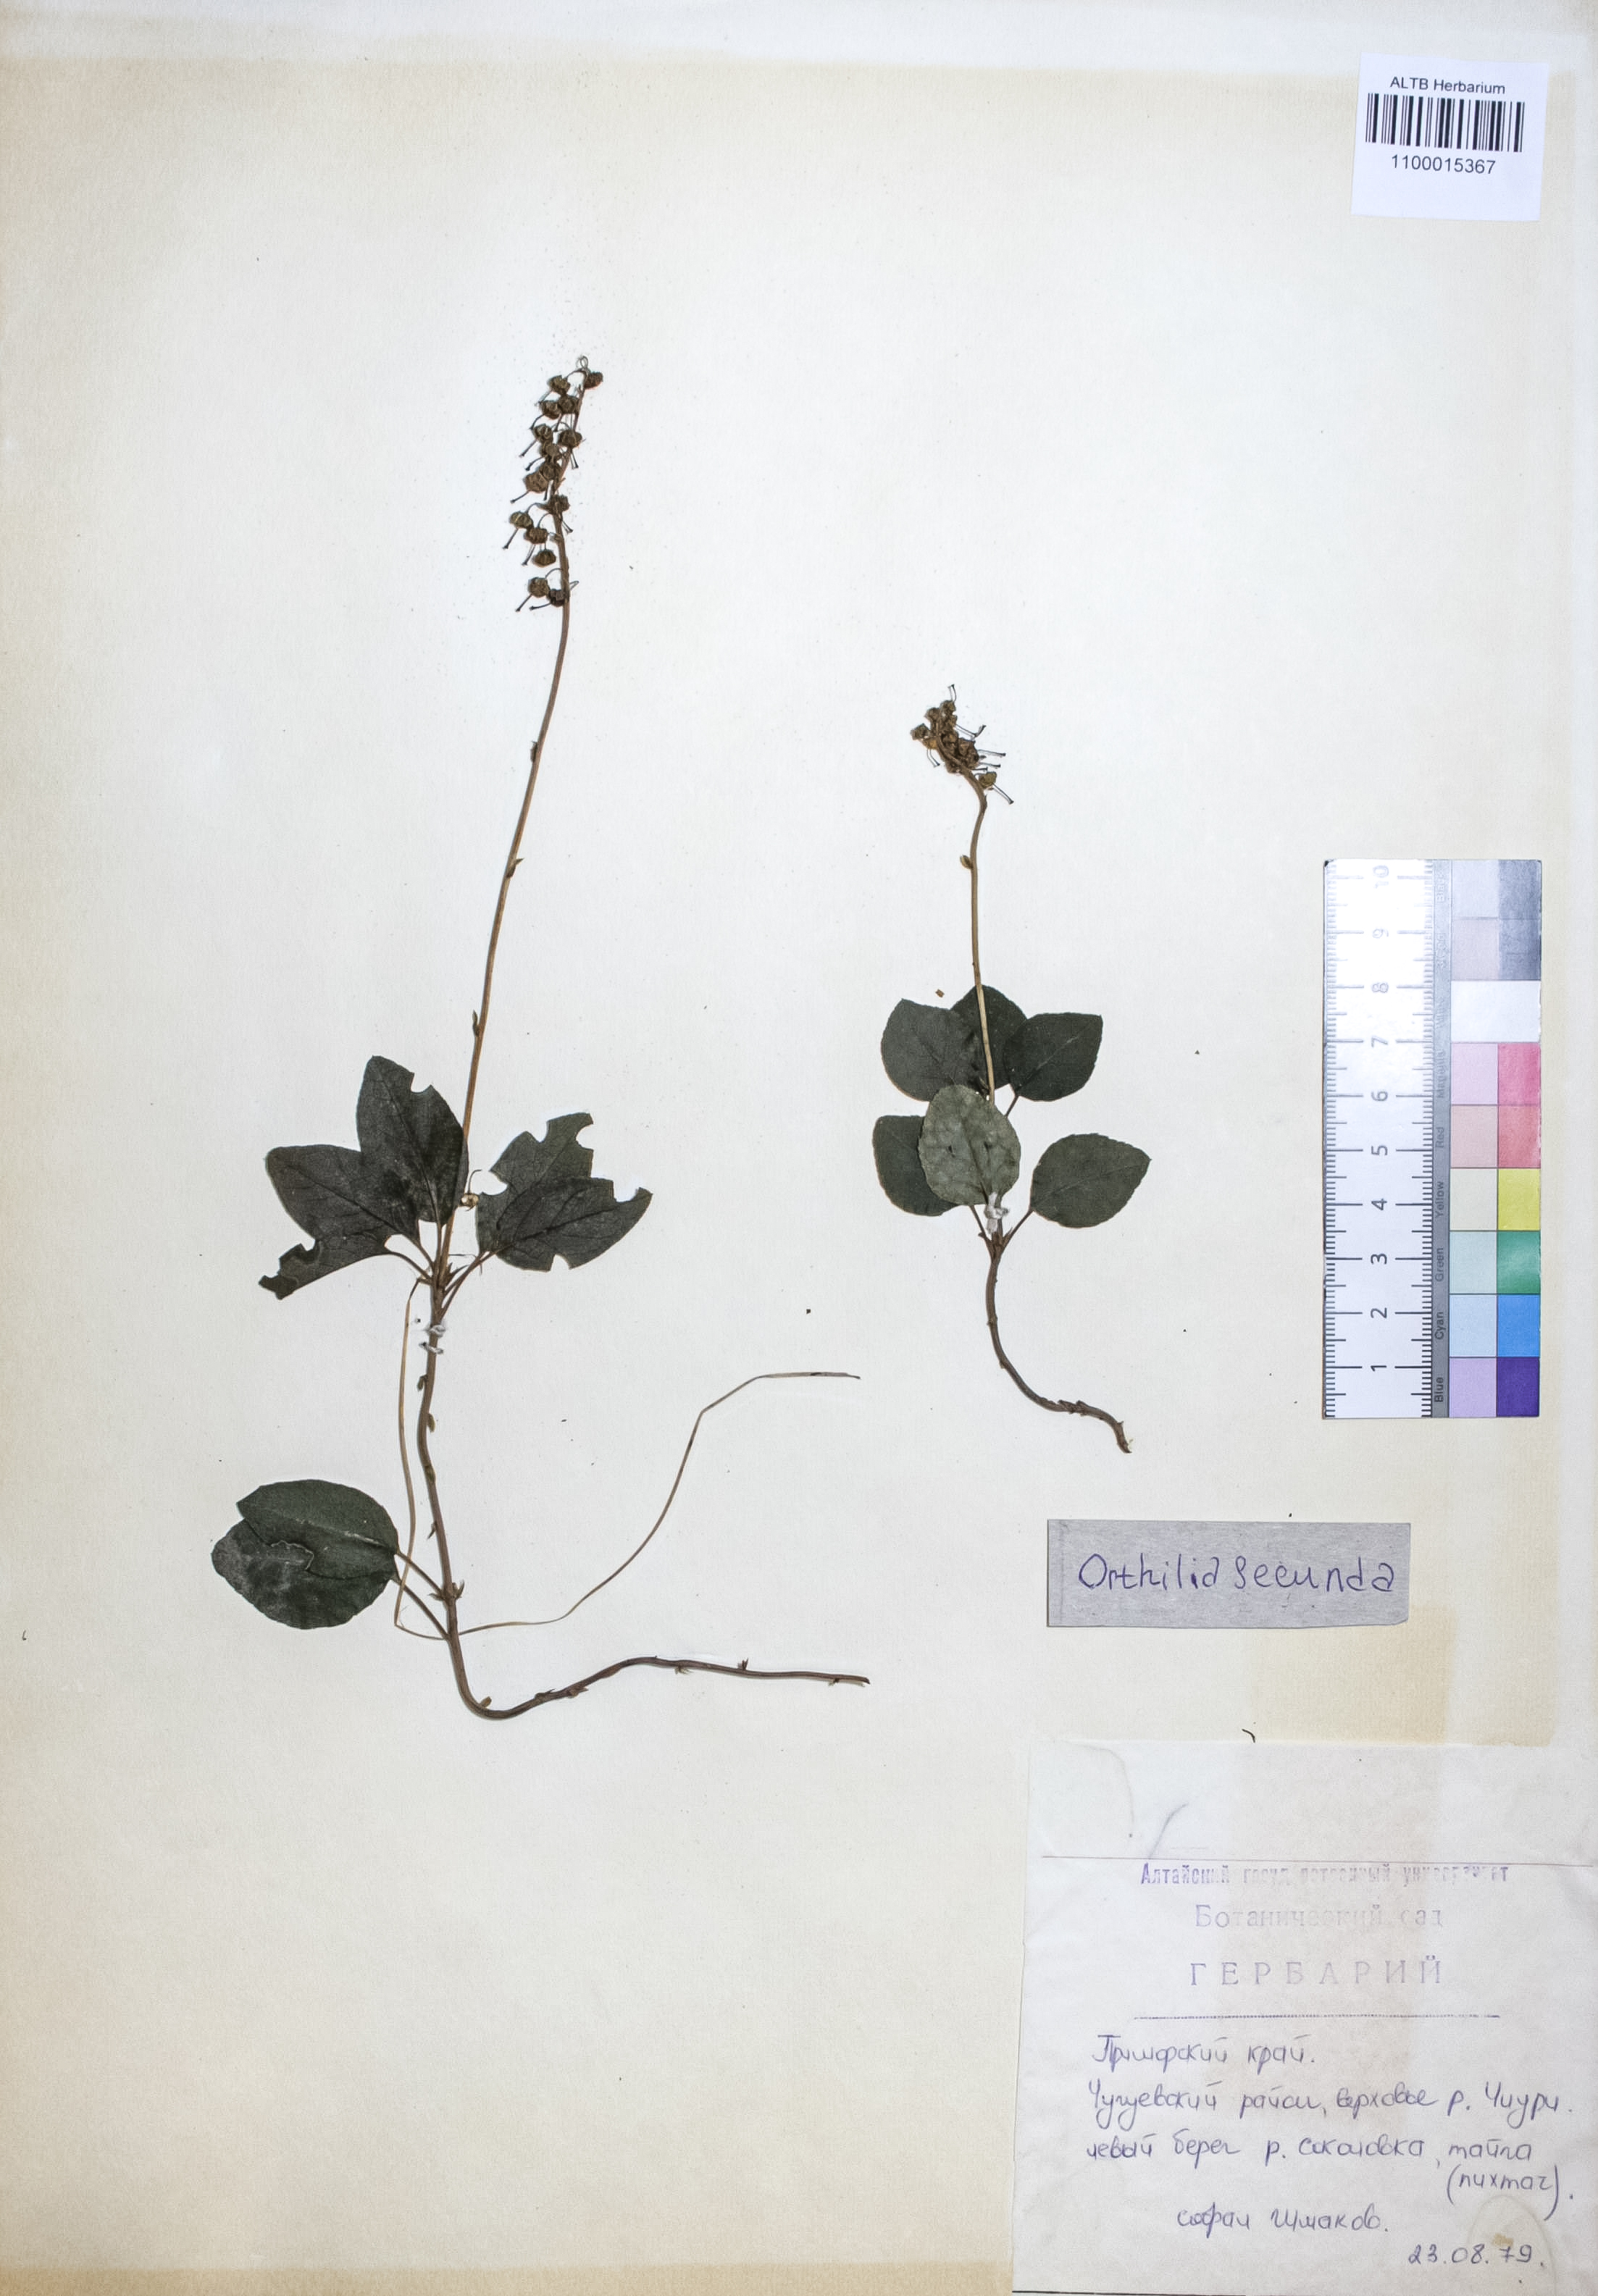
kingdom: Plantae
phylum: Tracheophyta
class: Magnoliopsida
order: Ericales
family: Ericaceae
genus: Orthilia
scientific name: Orthilia secunda
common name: One-sided orthilia
